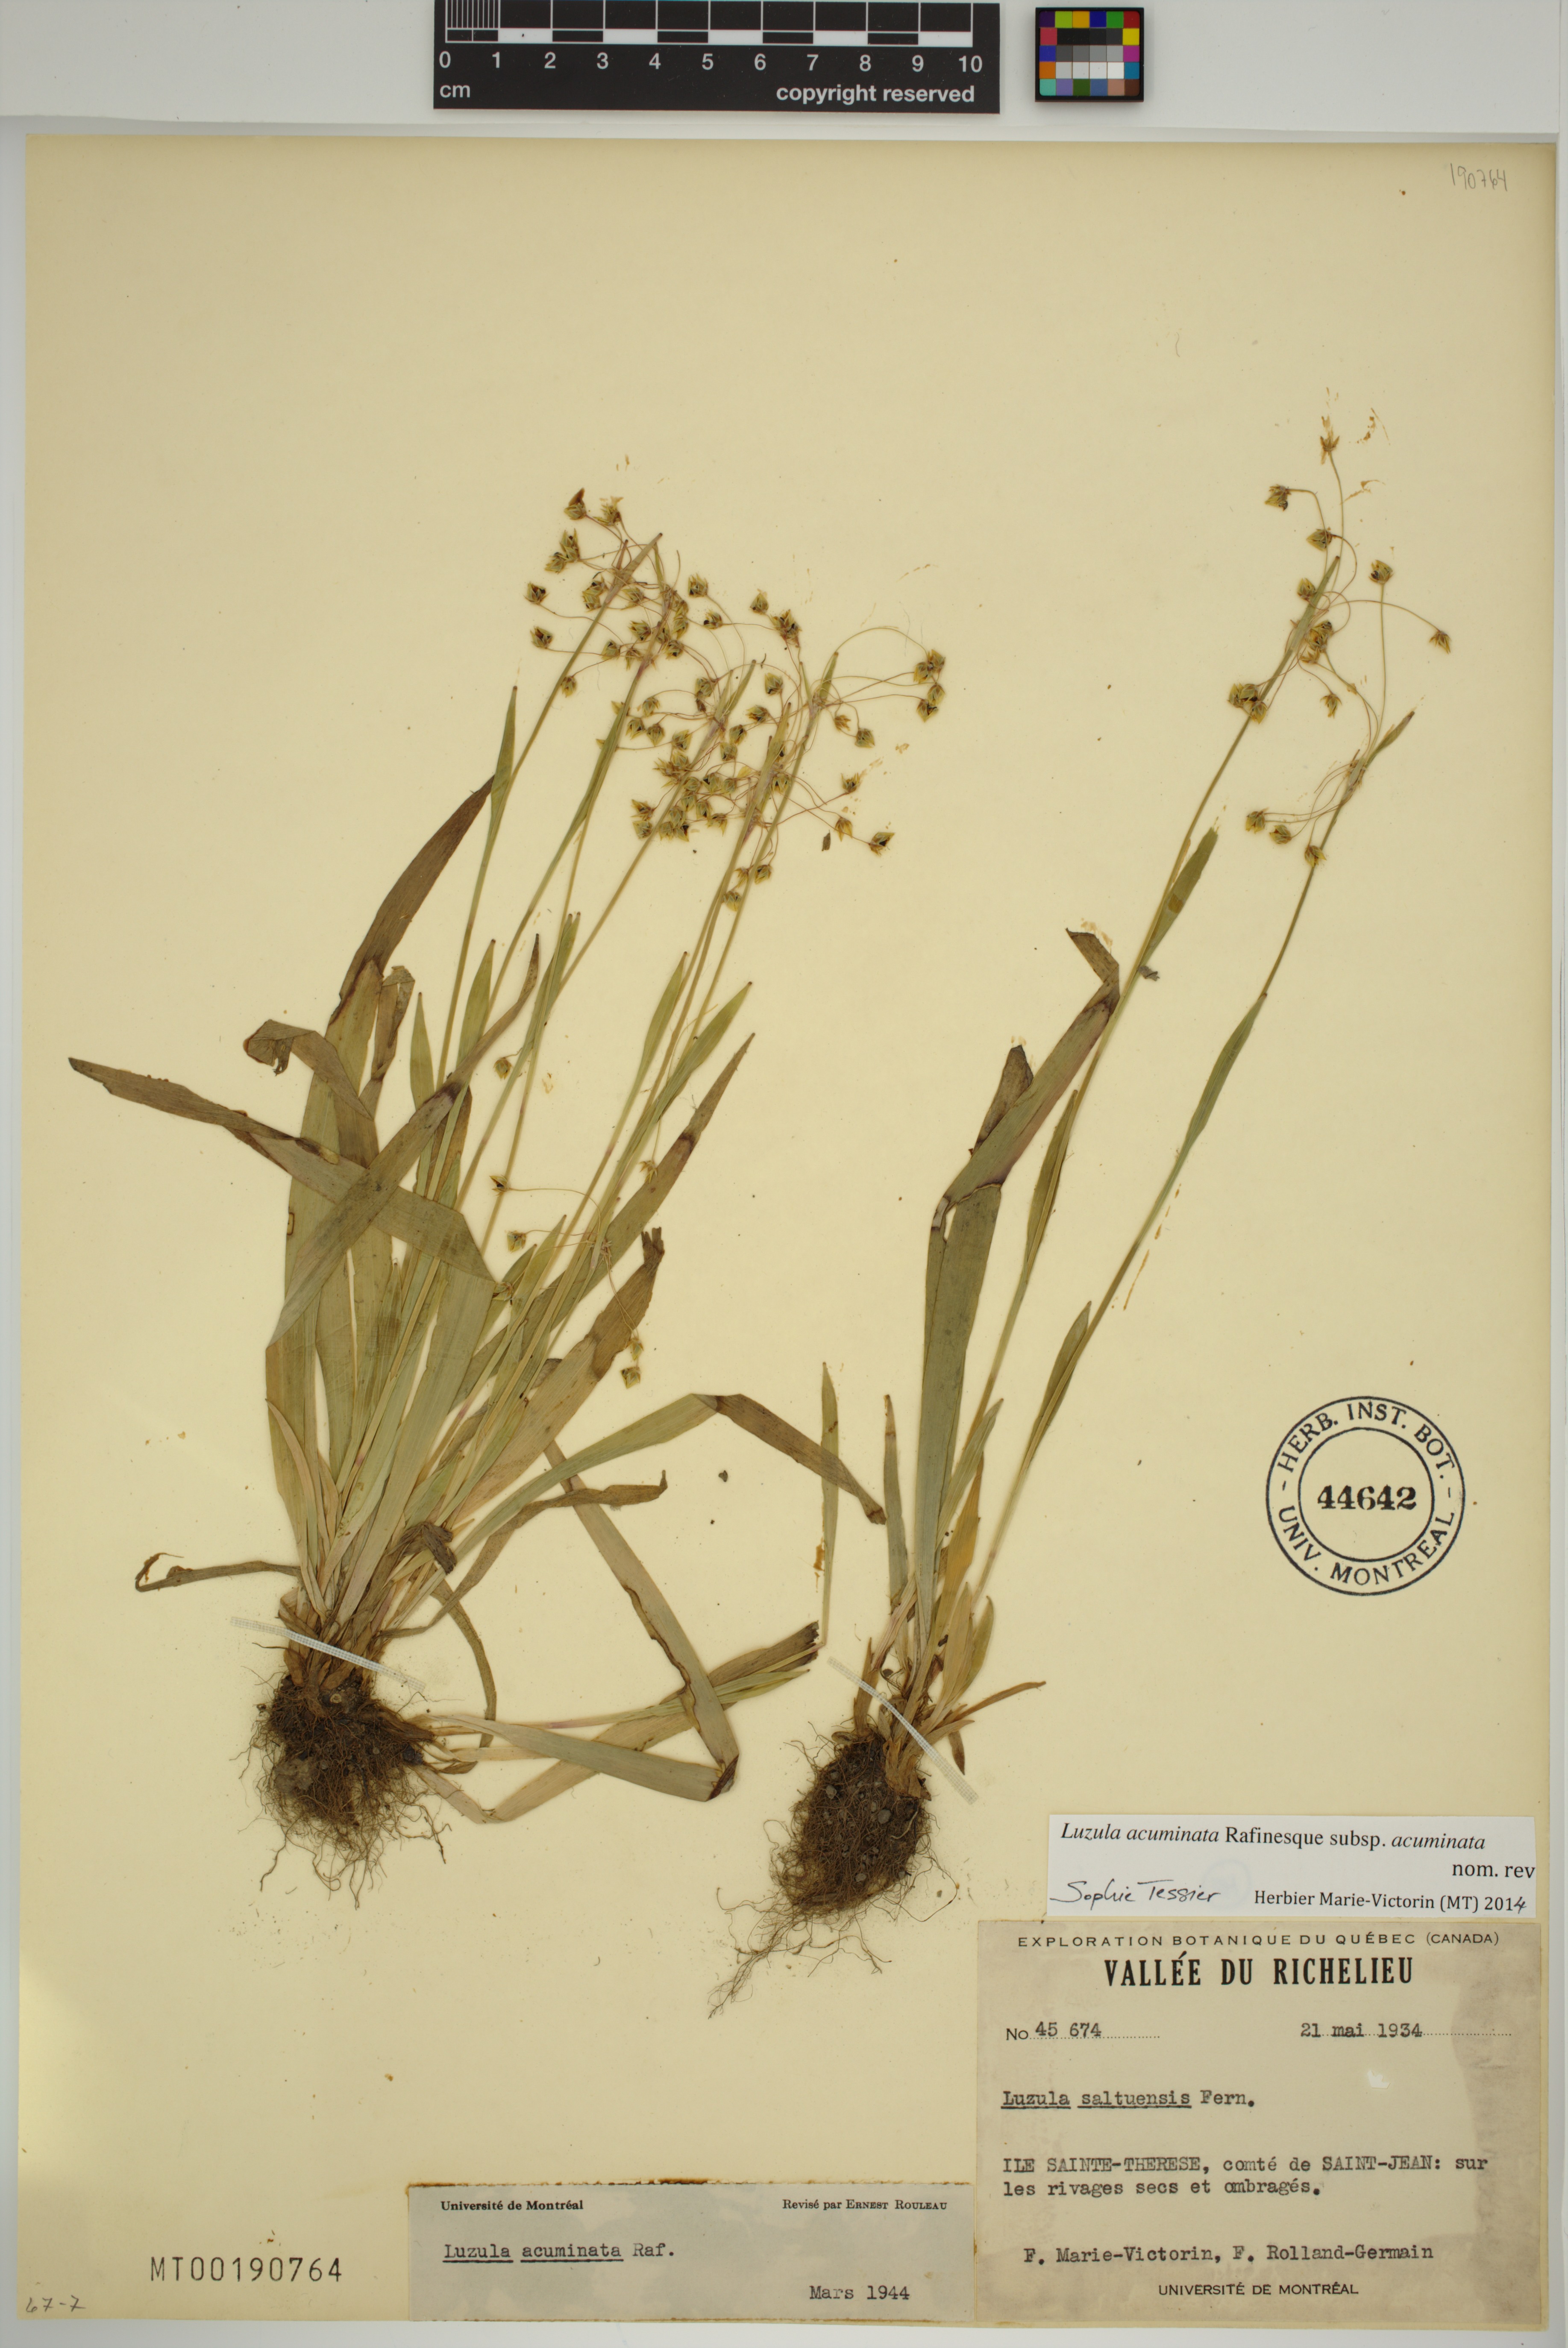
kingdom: Plantae
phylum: Tracheophyta
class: Liliopsida
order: Poales
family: Juncaceae
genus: Luzula
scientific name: Luzula acuminata
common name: Hairy woodrush
